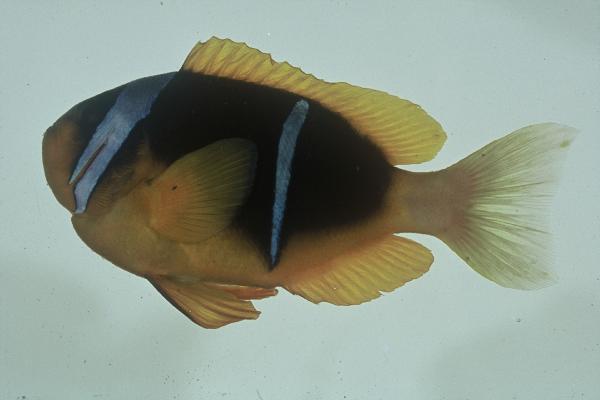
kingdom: Animalia
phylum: Chordata
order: Perciformes
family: Pomacentridae
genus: Amphiprion
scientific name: Amphiprion allardi
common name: Allard's anemonefish
